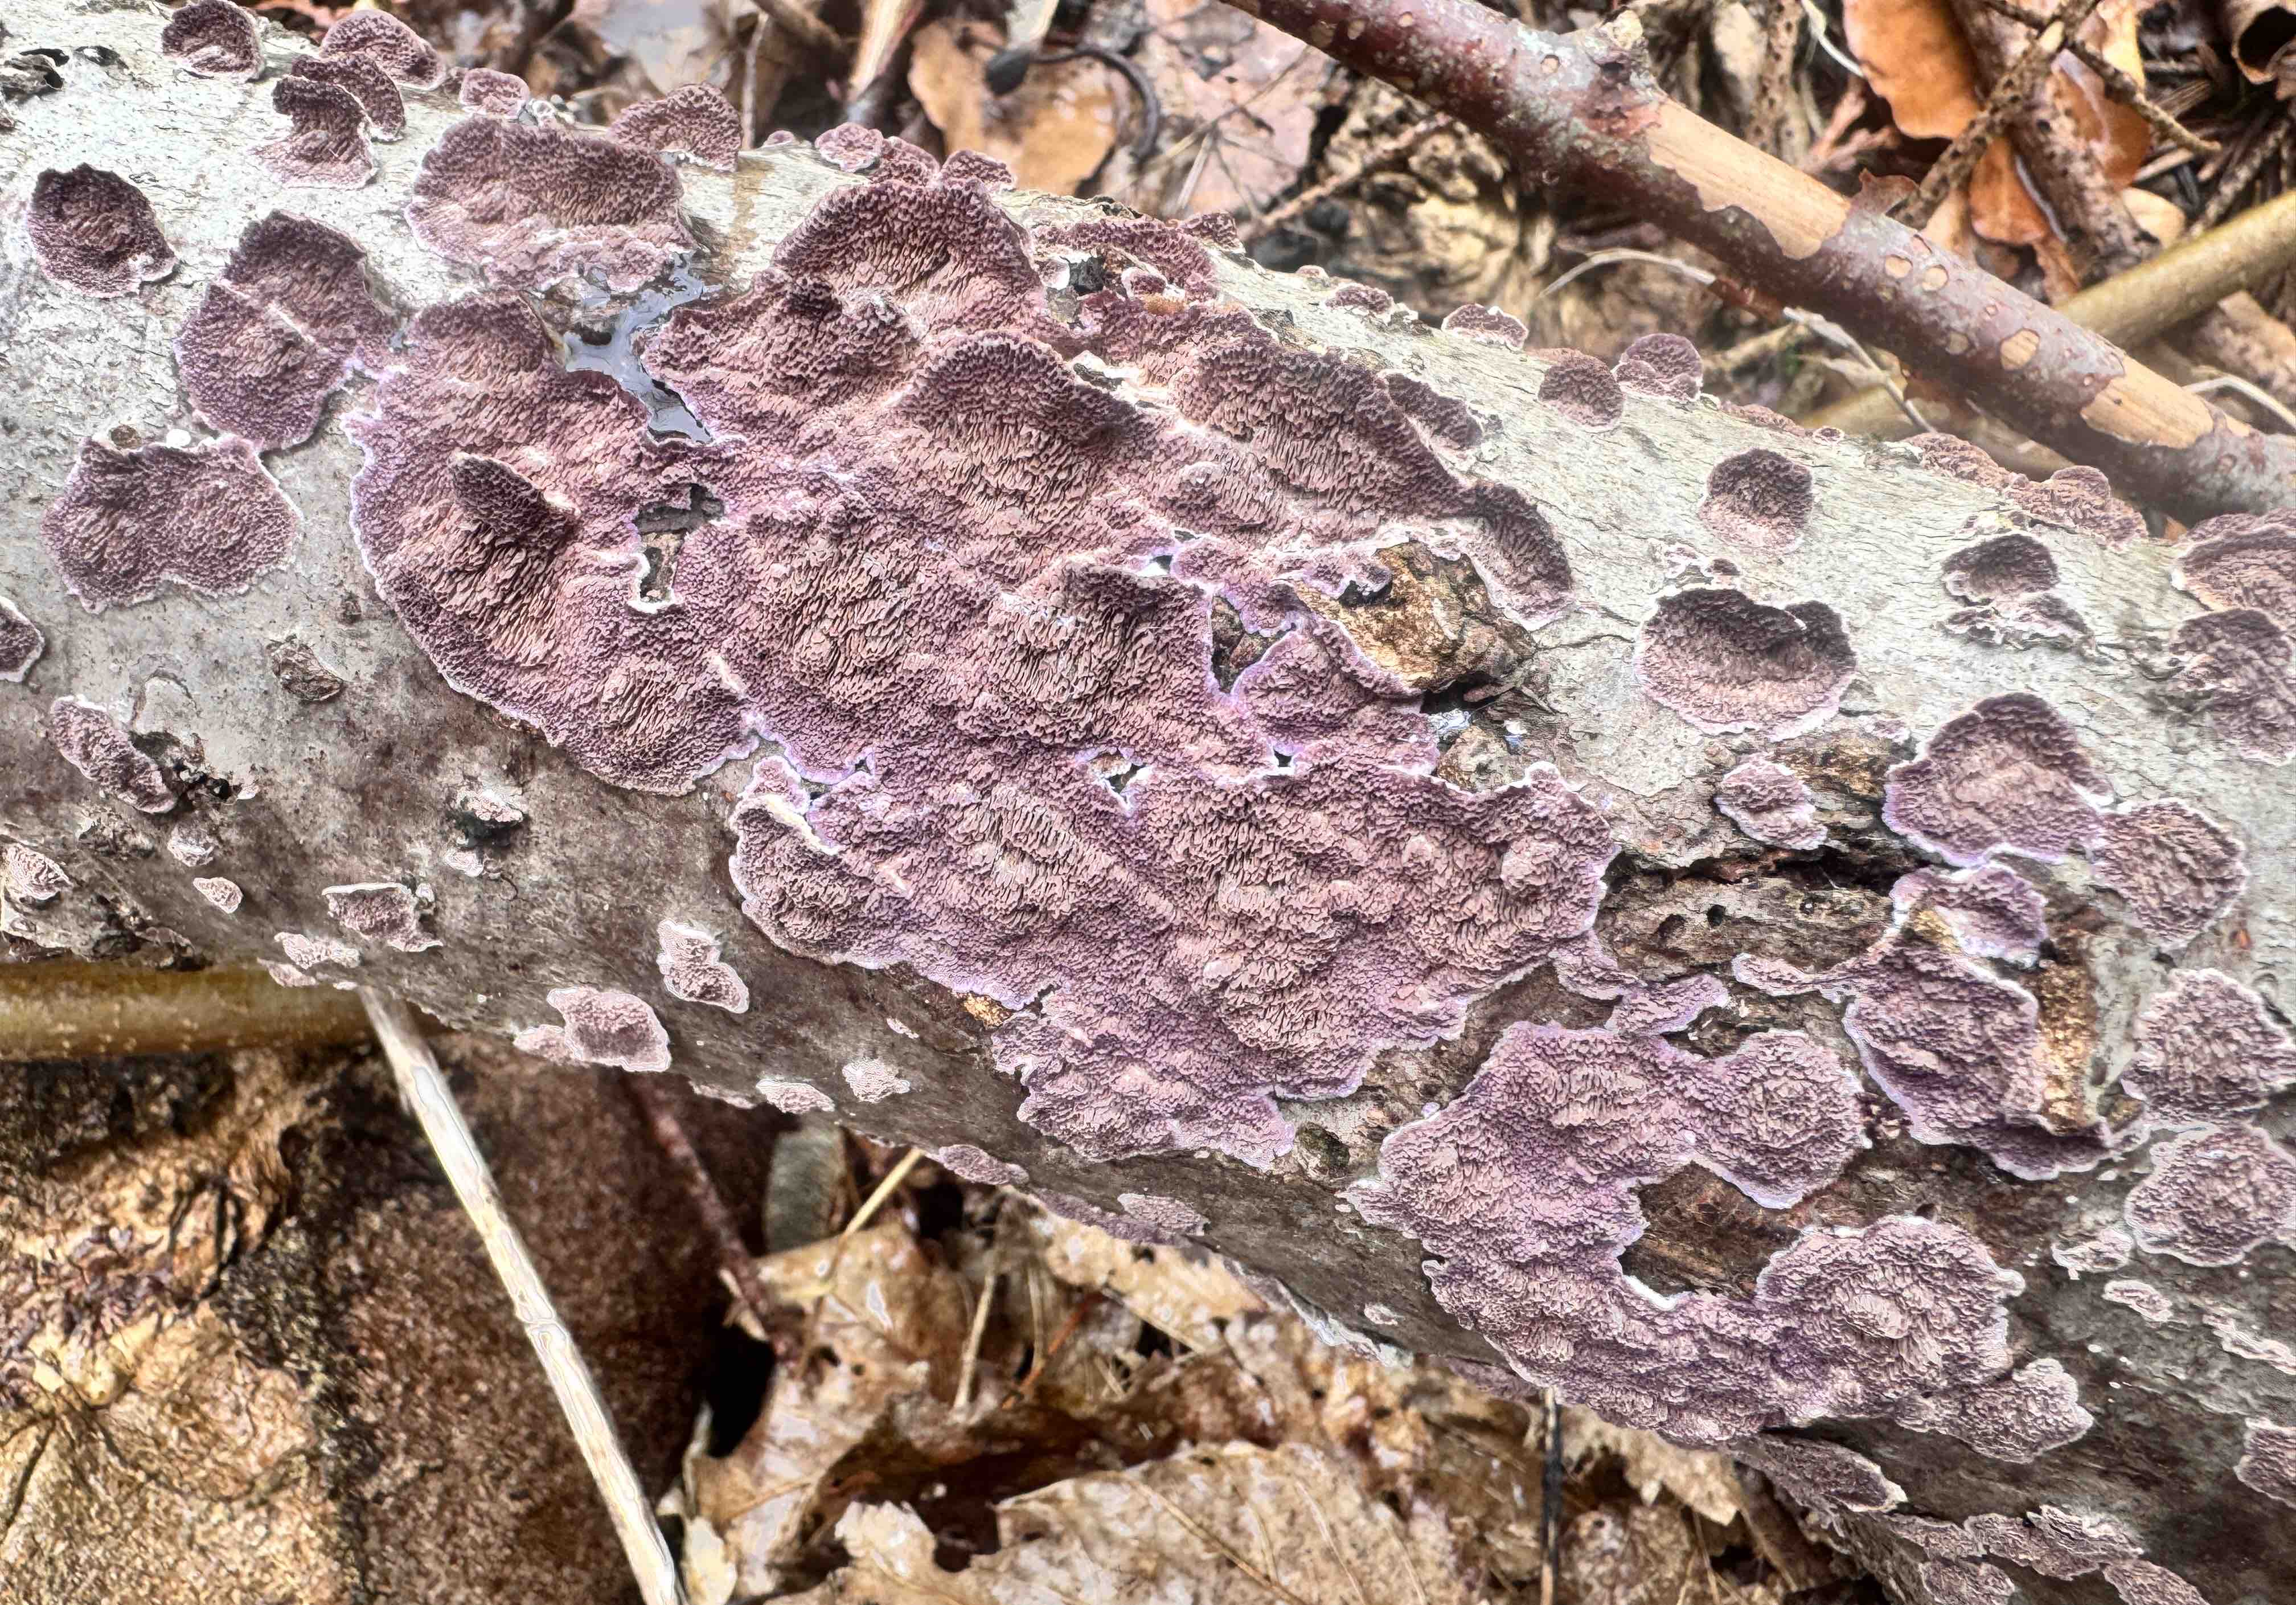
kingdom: Fungi
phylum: Basidiomycota
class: Agaricomycetes
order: Hymenochaetales
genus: Trichaptum
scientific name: Trichaptum abietinum
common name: almindelig violporesvamp
